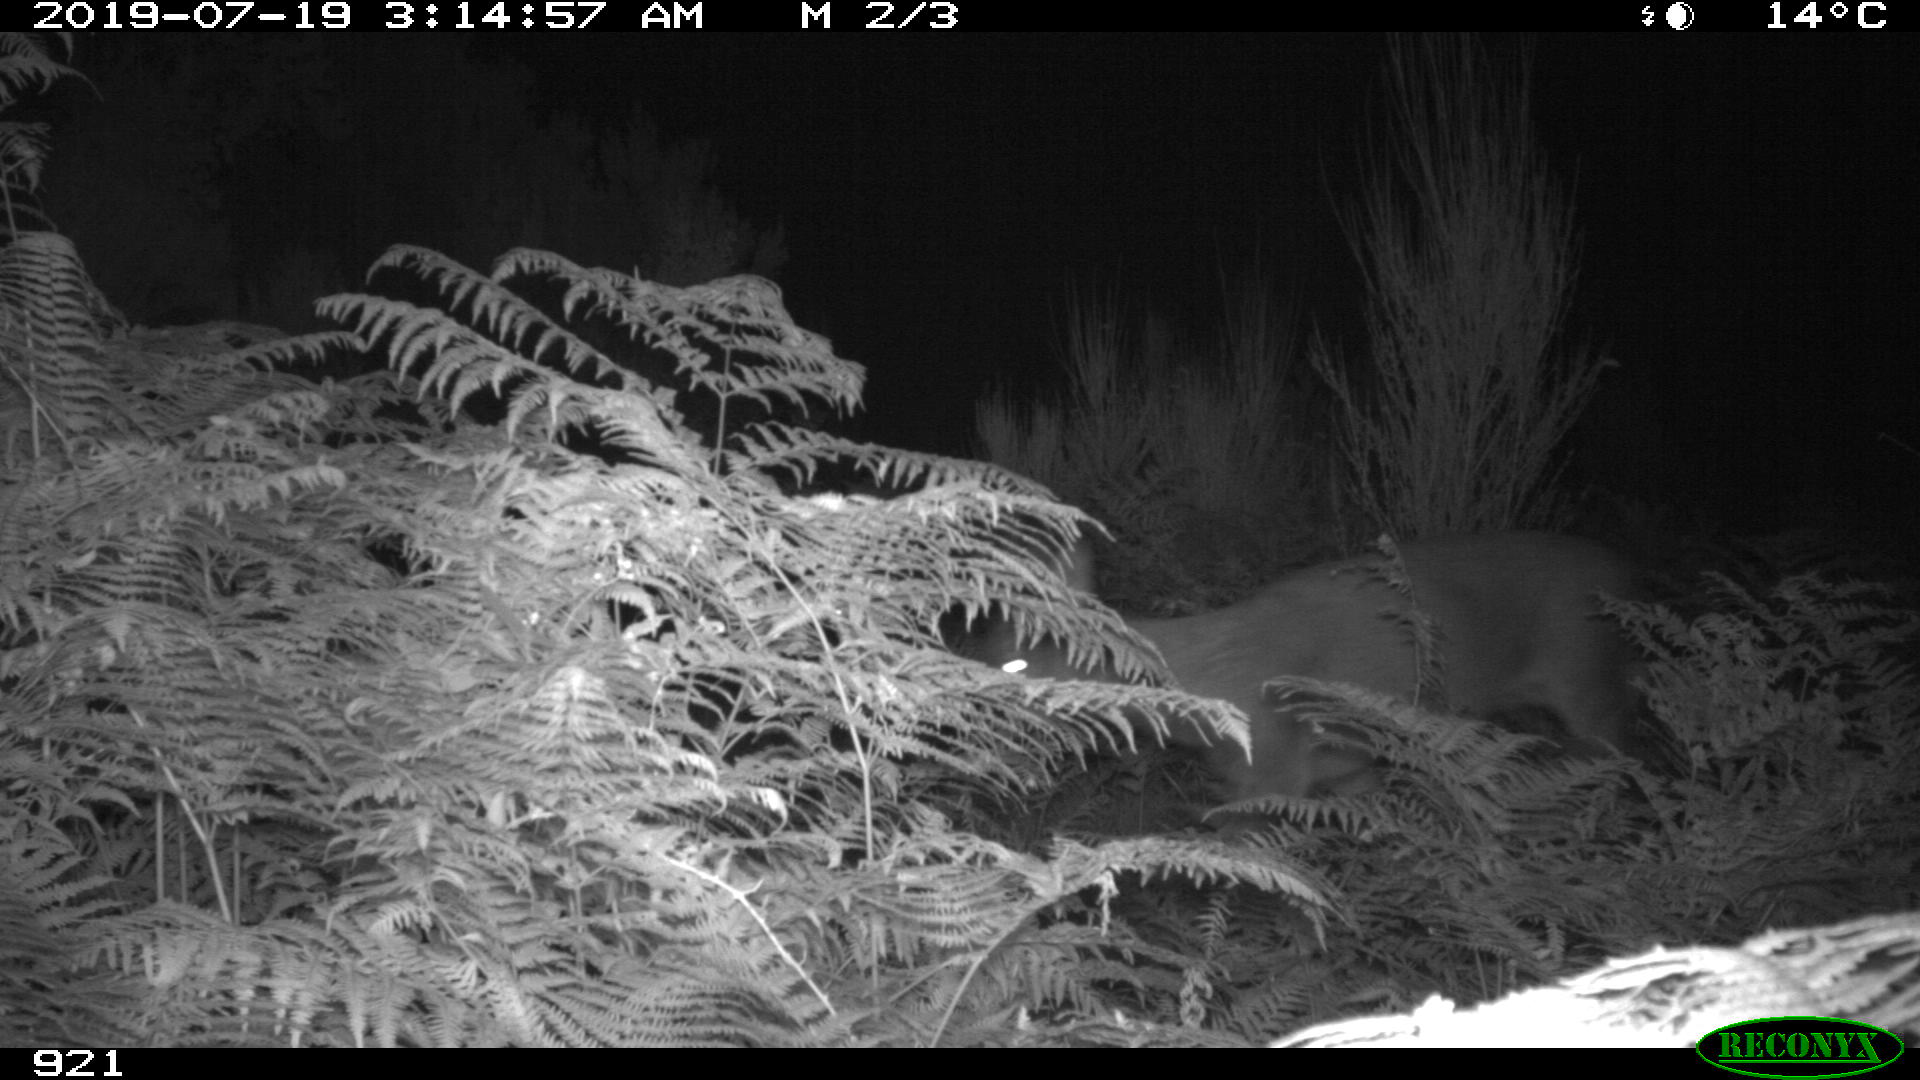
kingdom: Animalia
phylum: Chordata
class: Mammalia
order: Artiodactyla
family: Cervidae
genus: Capreolus
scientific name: Capreolus capreolus
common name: Western roe deer
